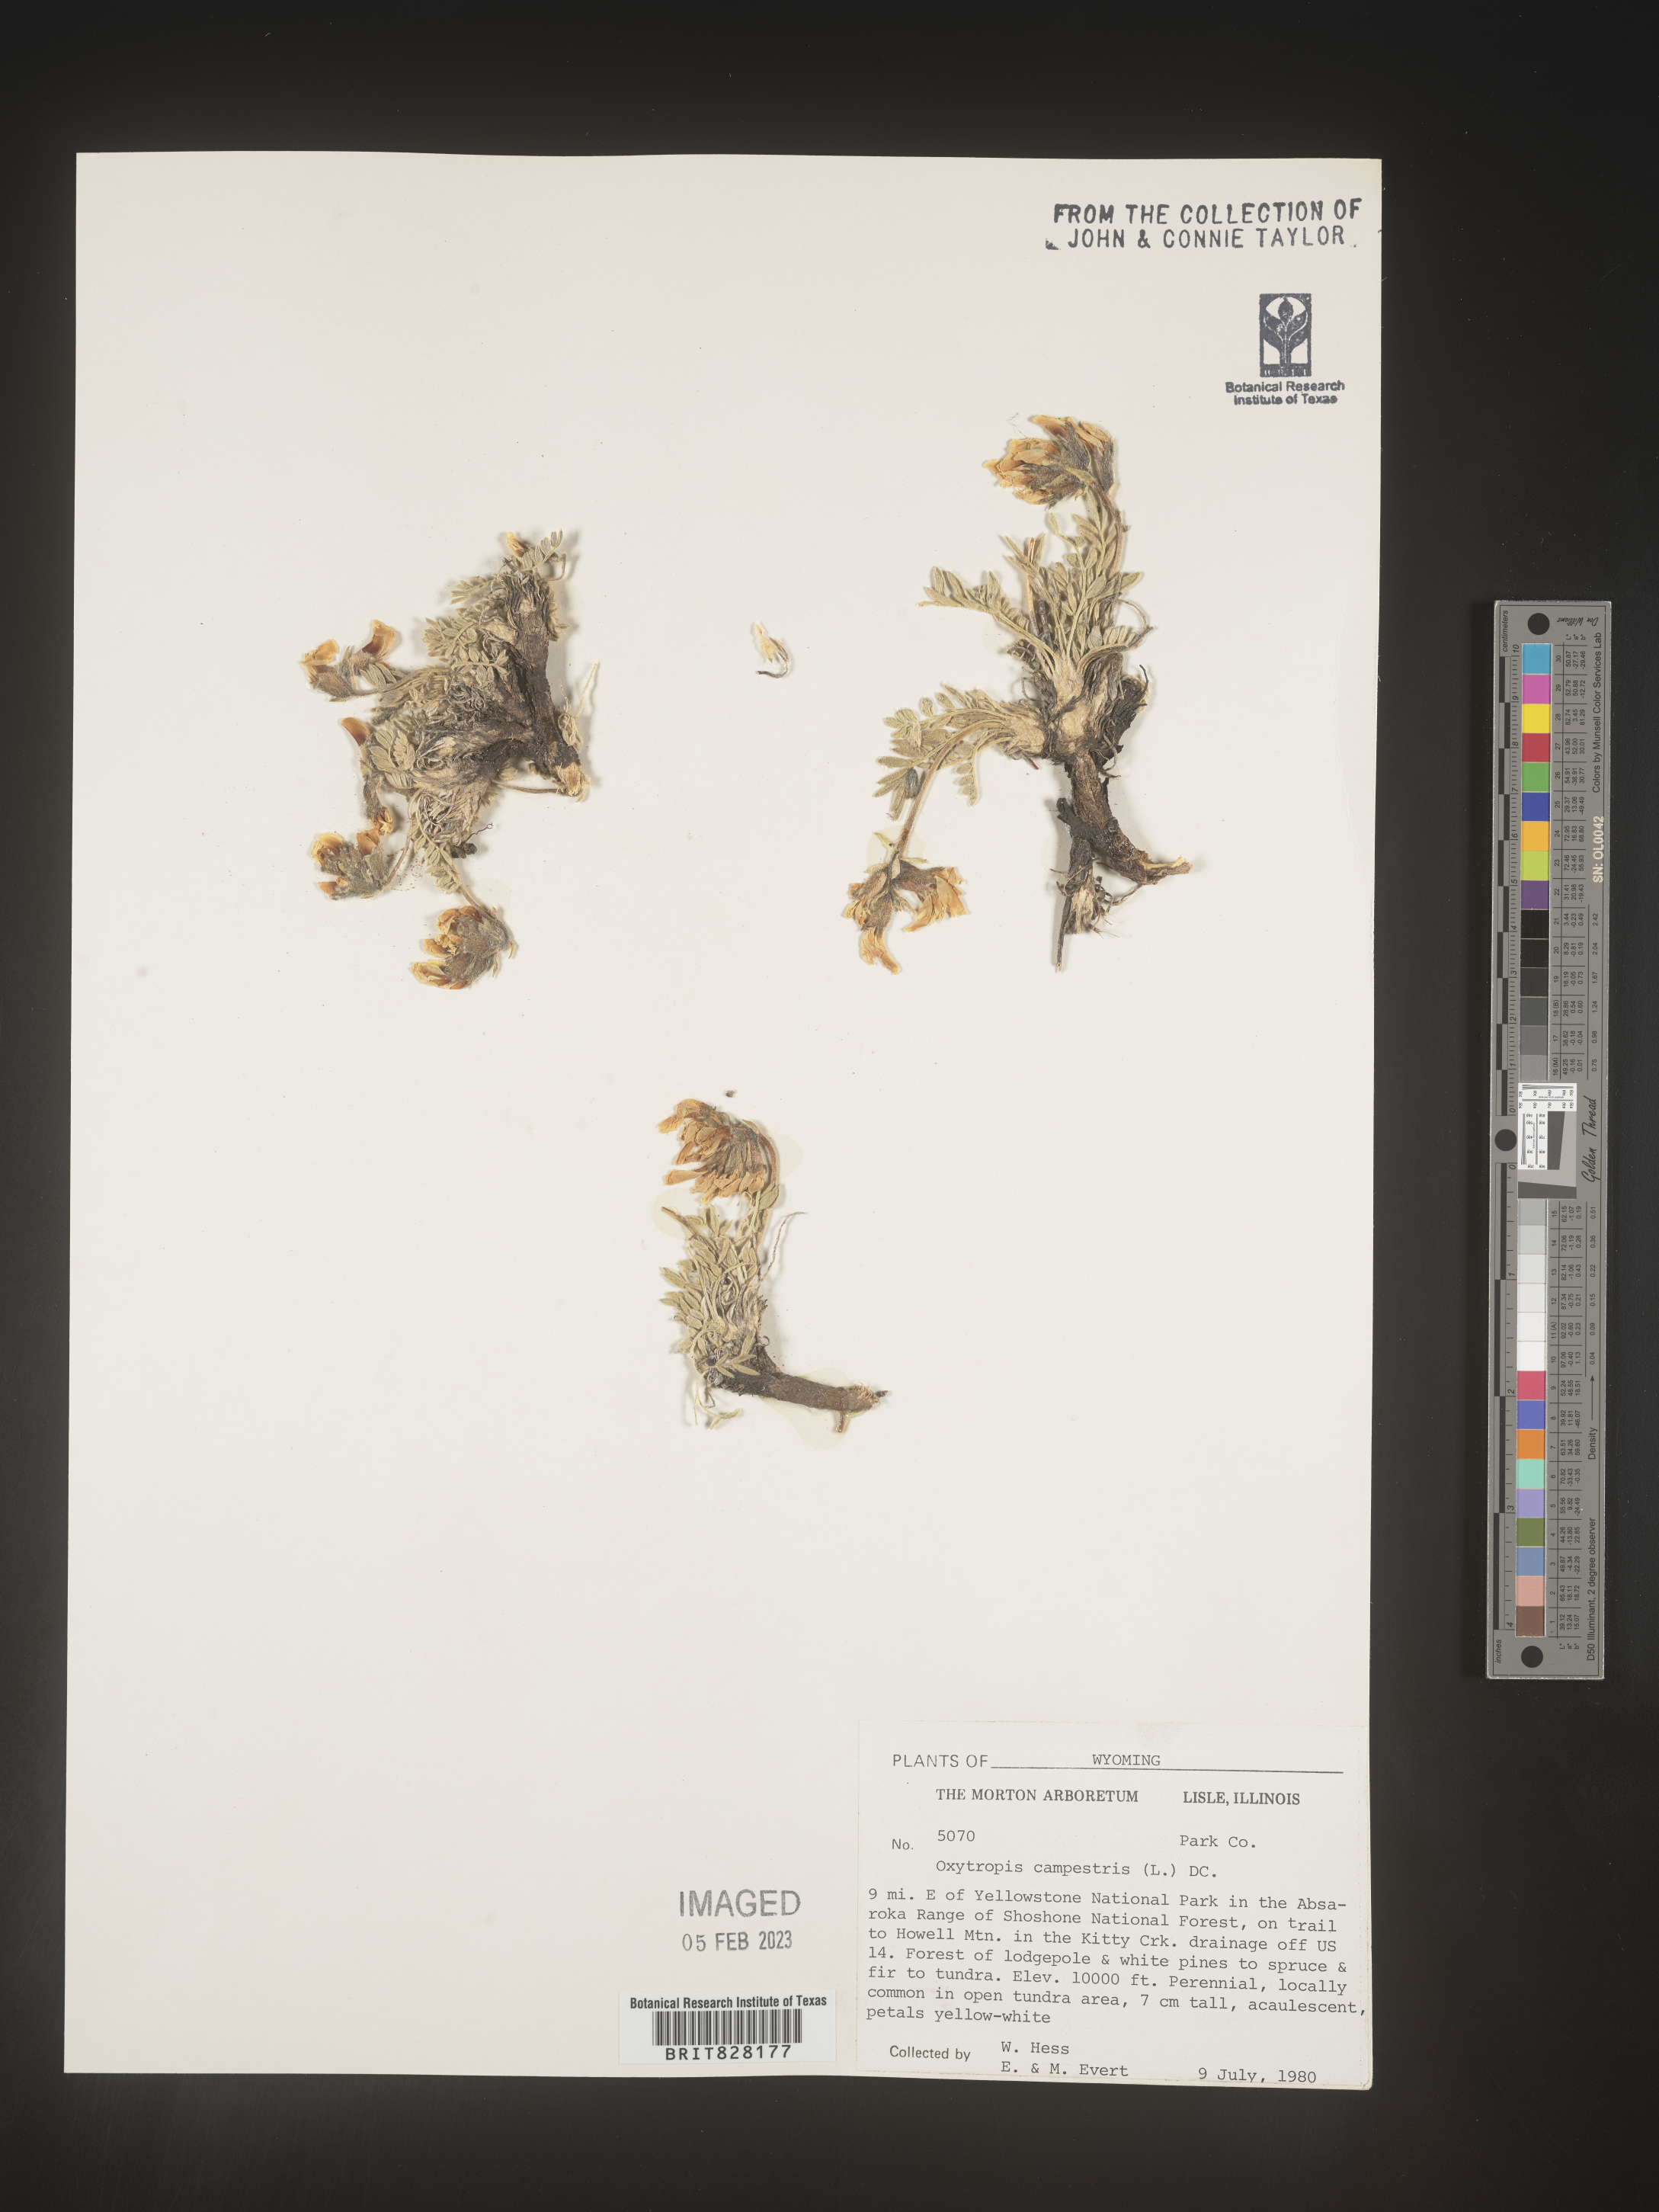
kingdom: Plantae
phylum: Tracheophyta
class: Magnoliopsida
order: Fabales
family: Fabaceae
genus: Oxytropis
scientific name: Oxytropis campestris
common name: Field locoweed
